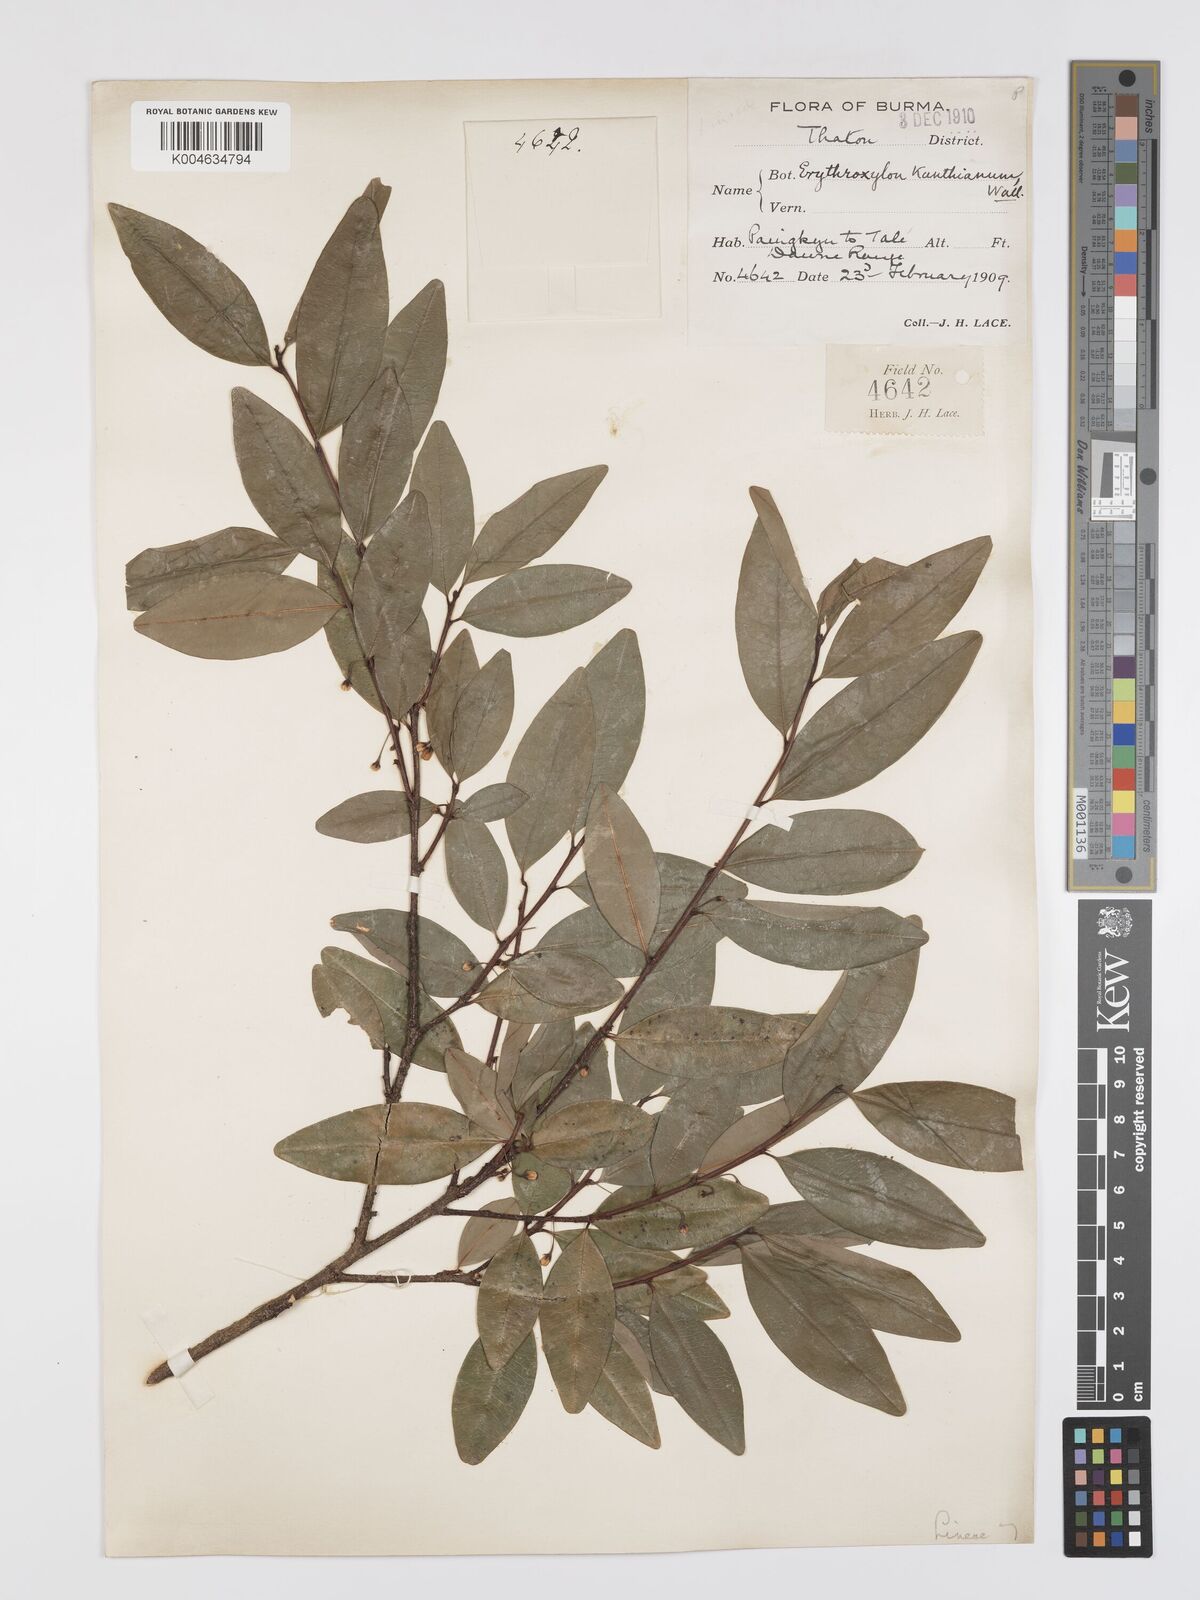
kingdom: Plantae
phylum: Tracheophyta
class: Magnoliopsida
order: Malpighiales
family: Erythroxylaceae
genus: Erythroxylum
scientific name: Erythroxylum
